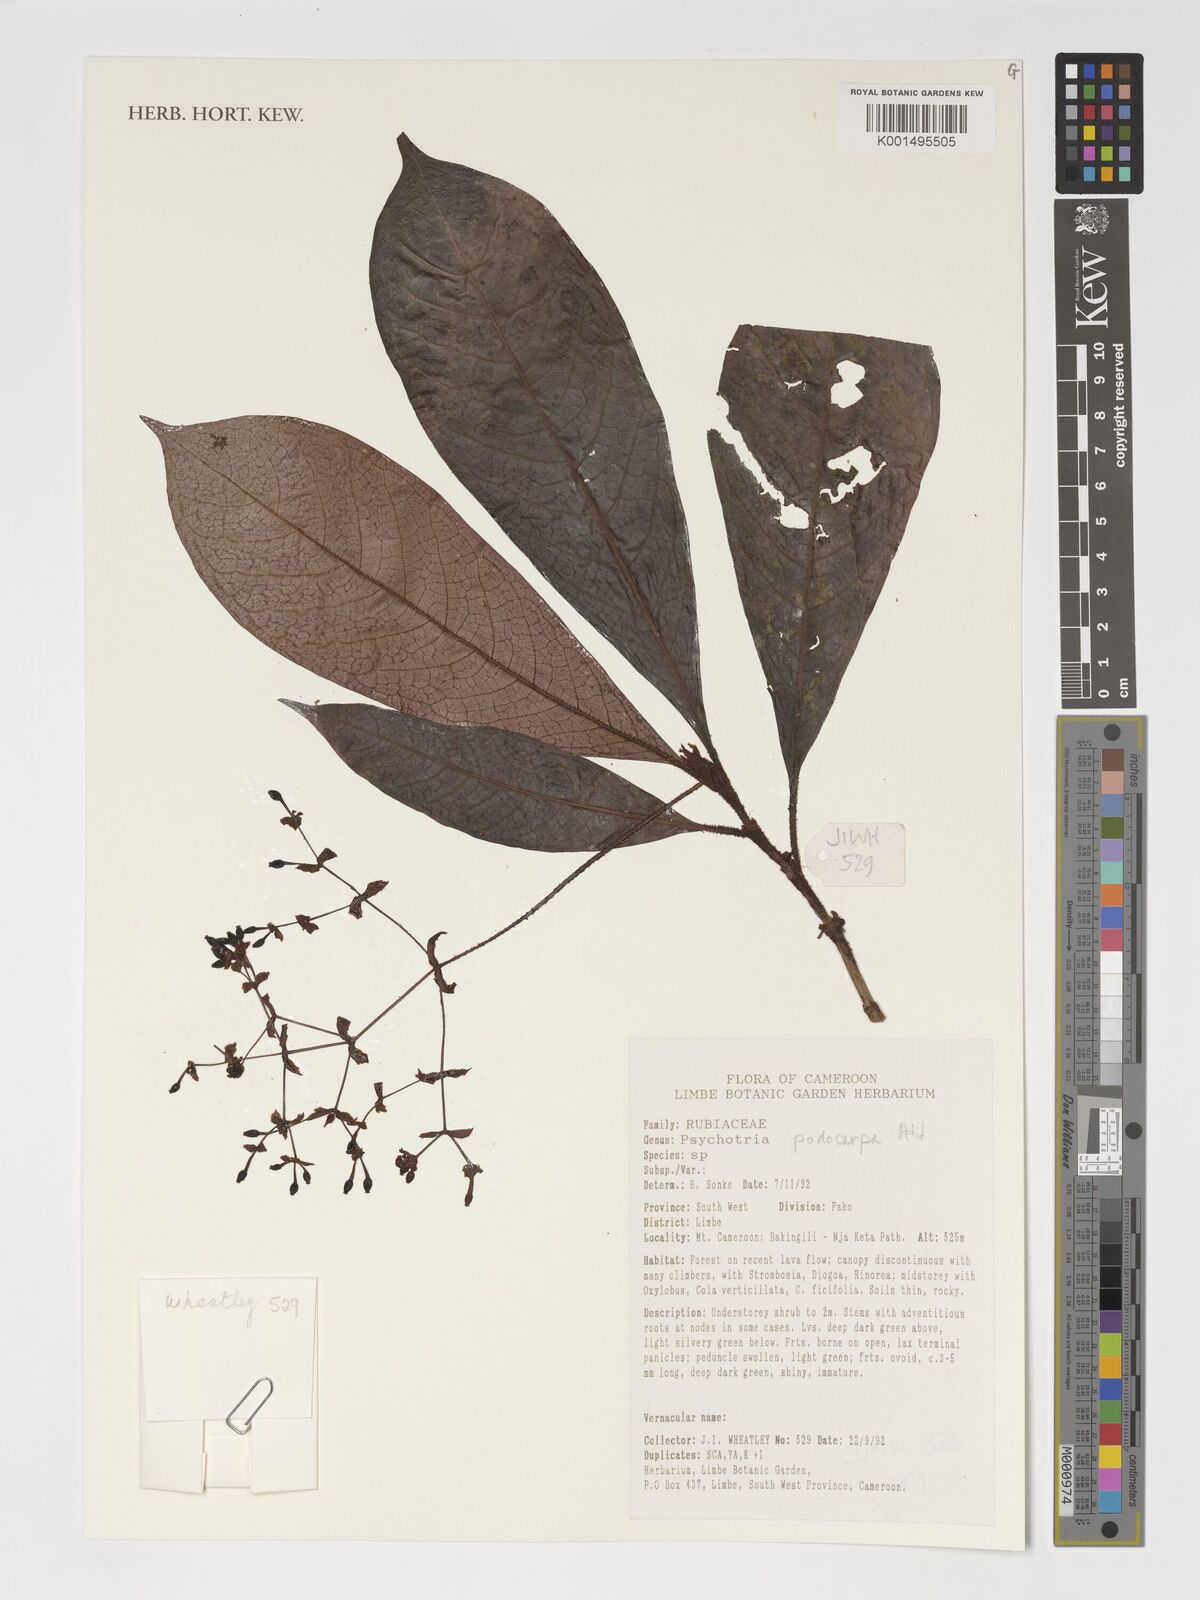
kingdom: Plantae
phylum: Tracheophyta
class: Magnoliopsida
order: Gentianales
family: Rubiaceae
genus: Psychotria
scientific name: Psychotria podocarpa
